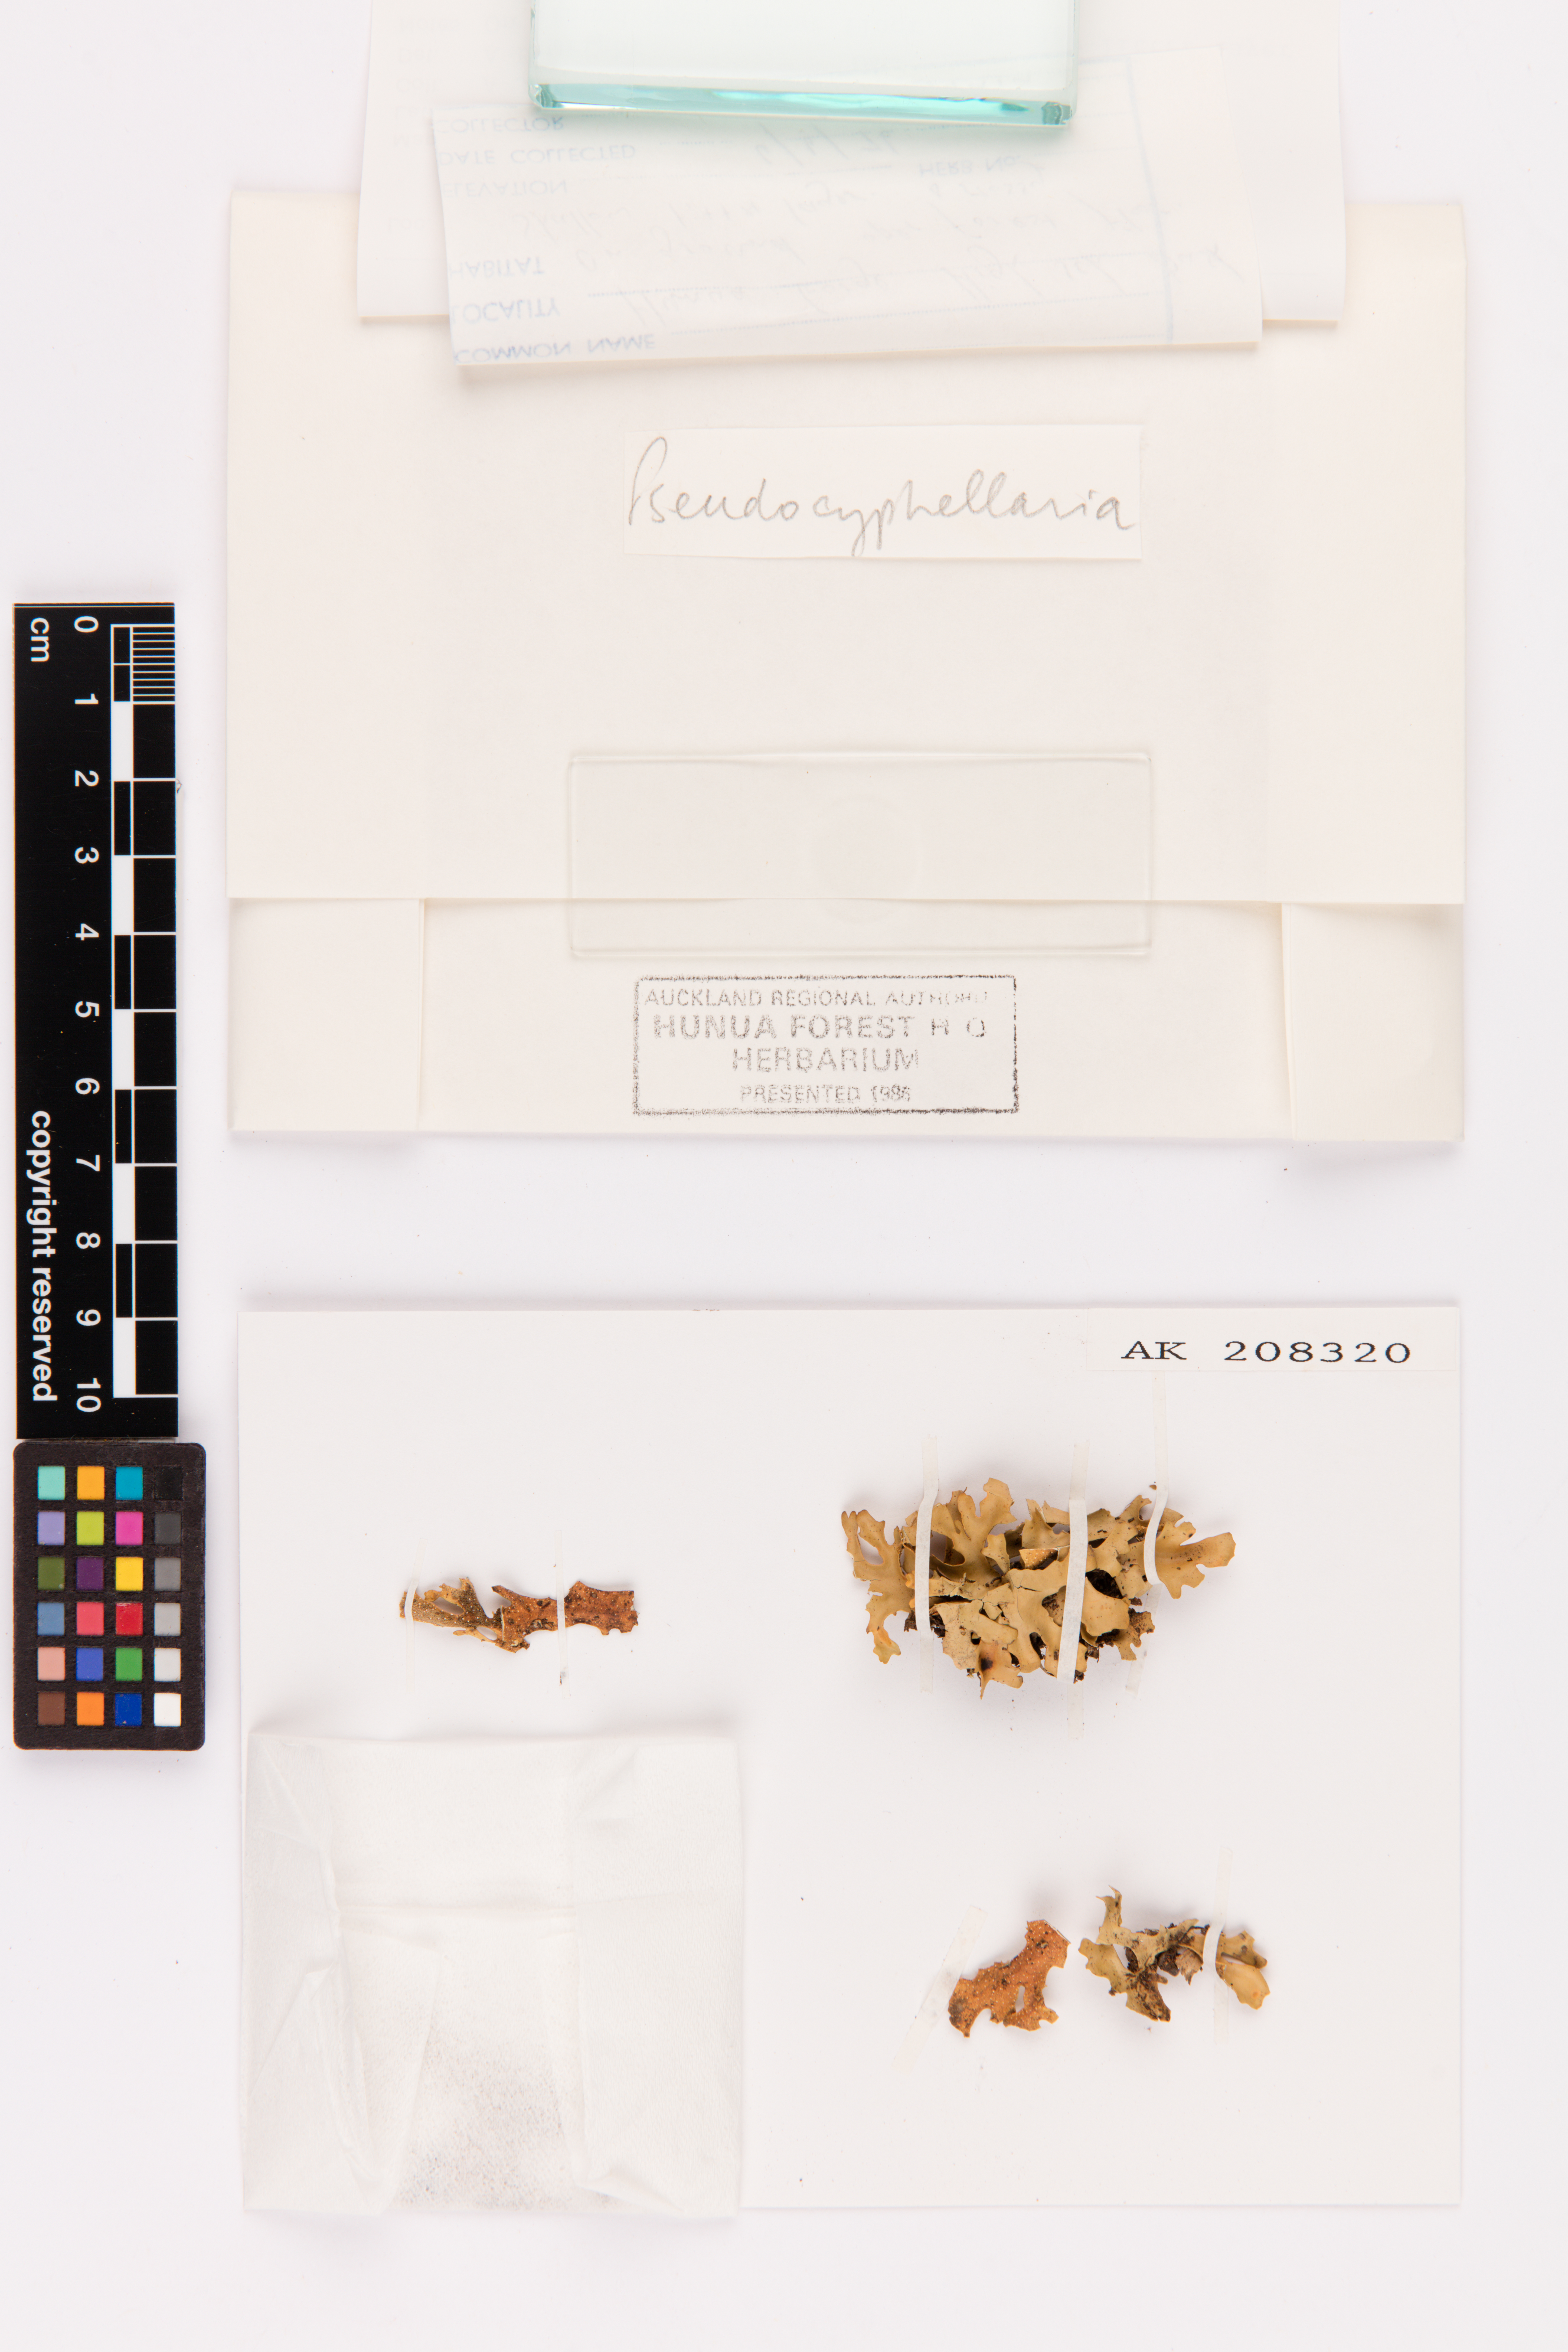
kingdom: Fungi
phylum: Ascomycota
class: Lecanoromycetes
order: Peltigerales
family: Lobariaceae
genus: Pseudocyphellaria
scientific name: Pseudocyphellaria cinnamomea
